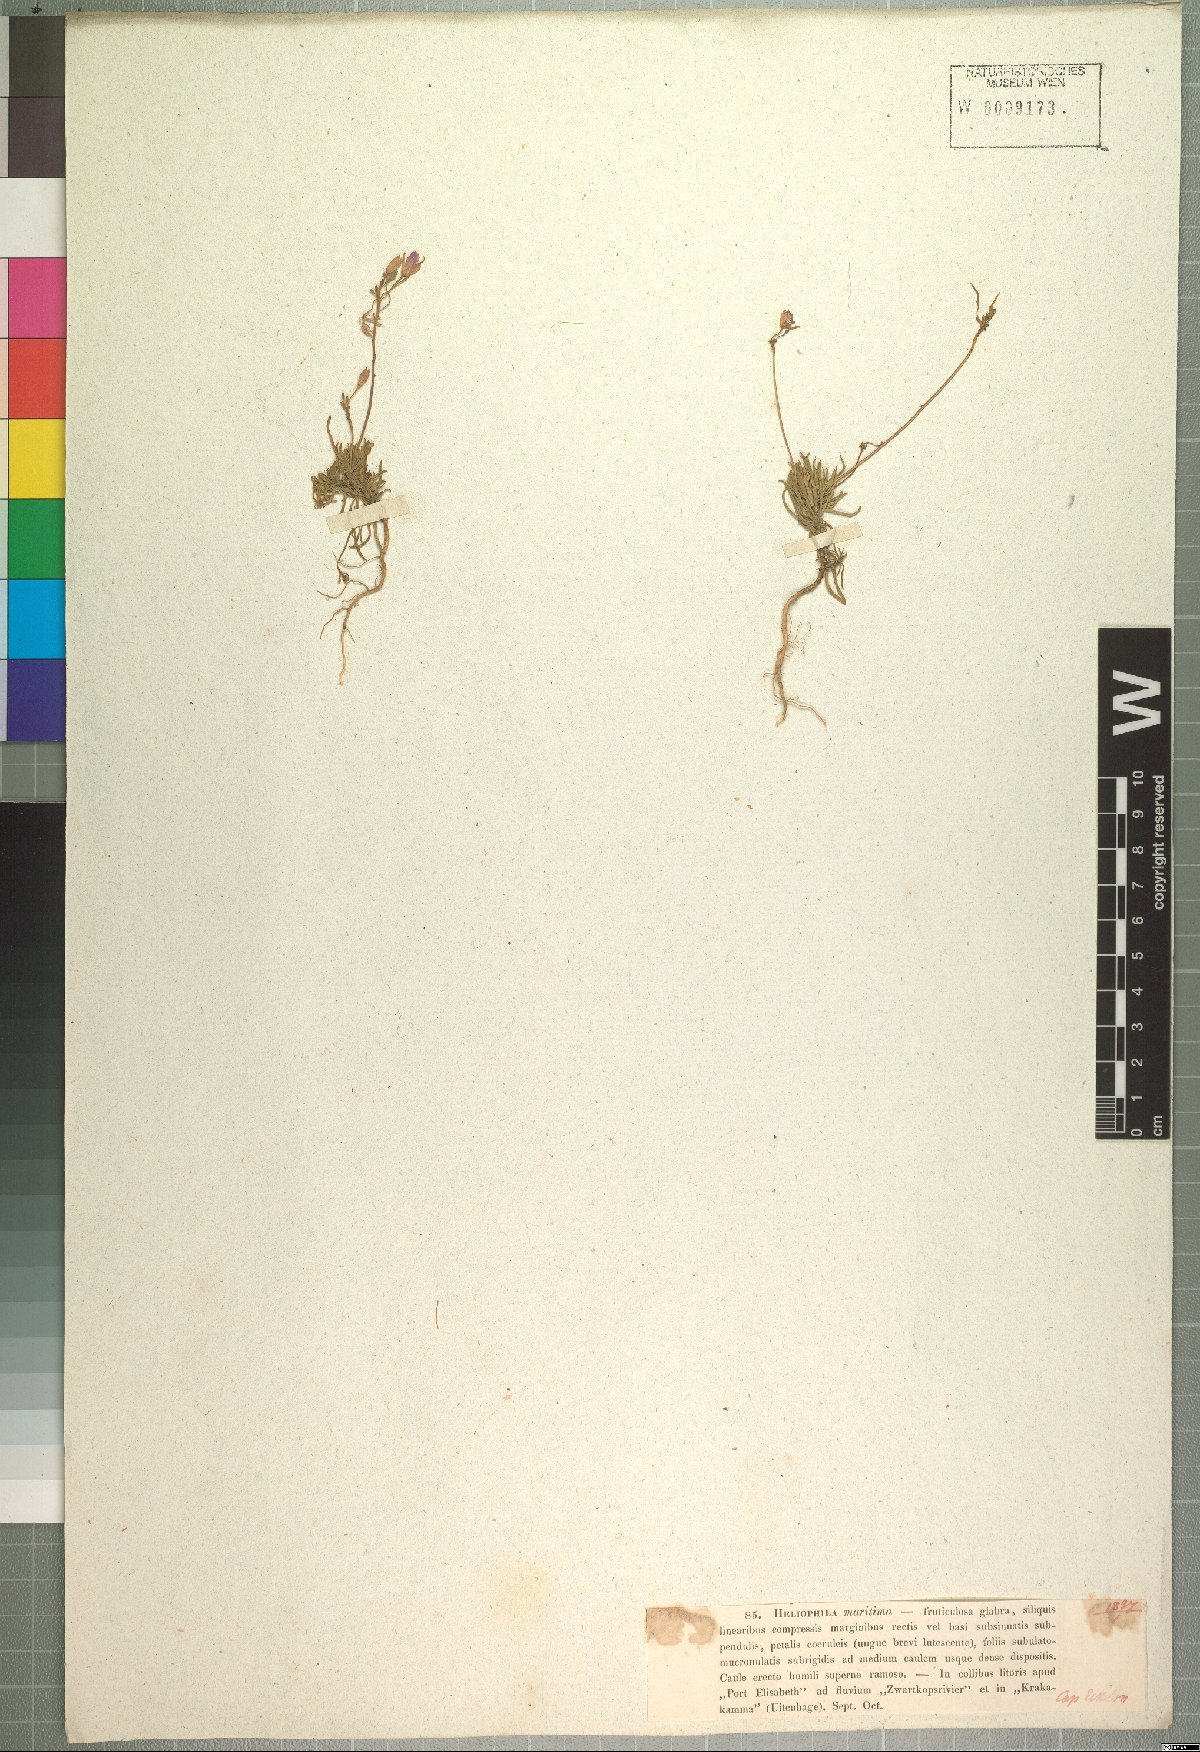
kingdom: Plantae
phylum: Tracheophyta
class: Magnoliopsida
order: Brassicales
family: Brassicaceae
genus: Heliophila
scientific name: Heliophila subulata
